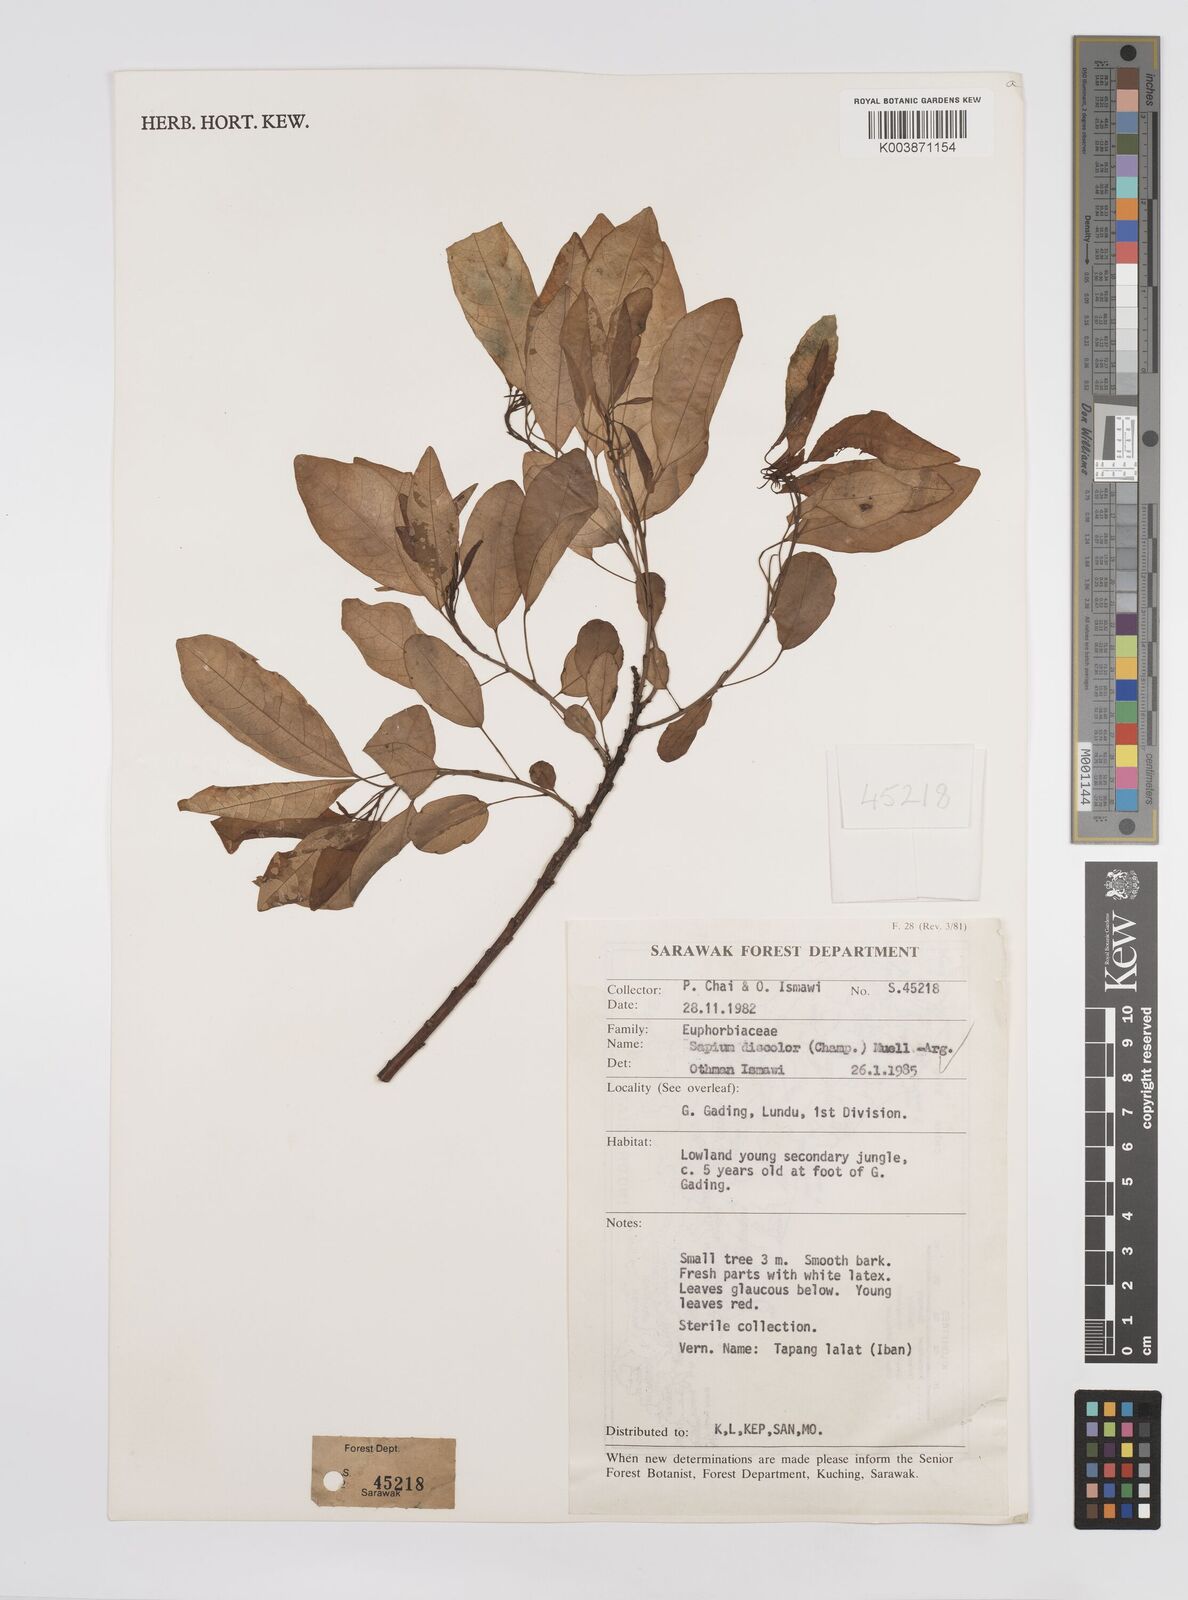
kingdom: Plantae
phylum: Tracheophyta
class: Magnoliopsida
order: Malpighiales
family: Euphorbiaceae
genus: Triadica
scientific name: Triadica cochinchinensis
